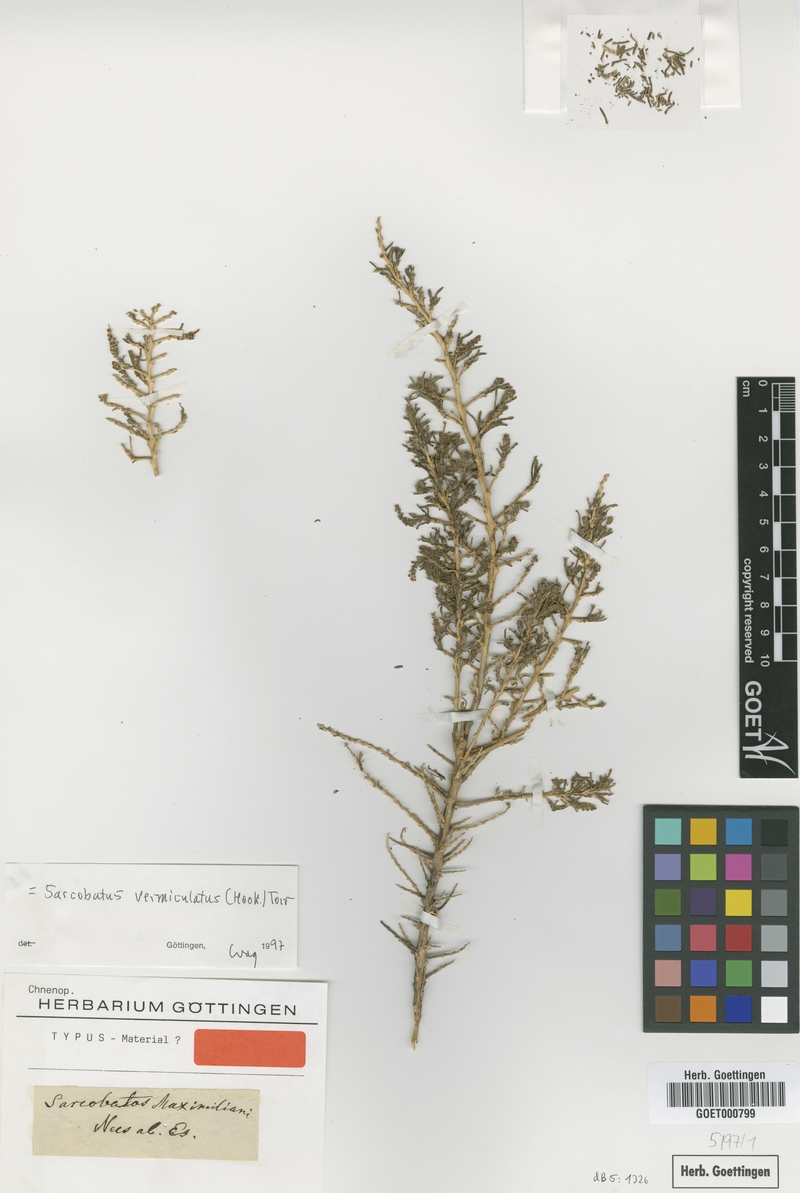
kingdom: Plantae
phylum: Tracheophyta
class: Magnoliopsida
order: Caryophyllales
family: Sarcobataceae
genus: Sarcobatus
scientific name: Sarcobatus vermiculatus
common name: Greasewood
